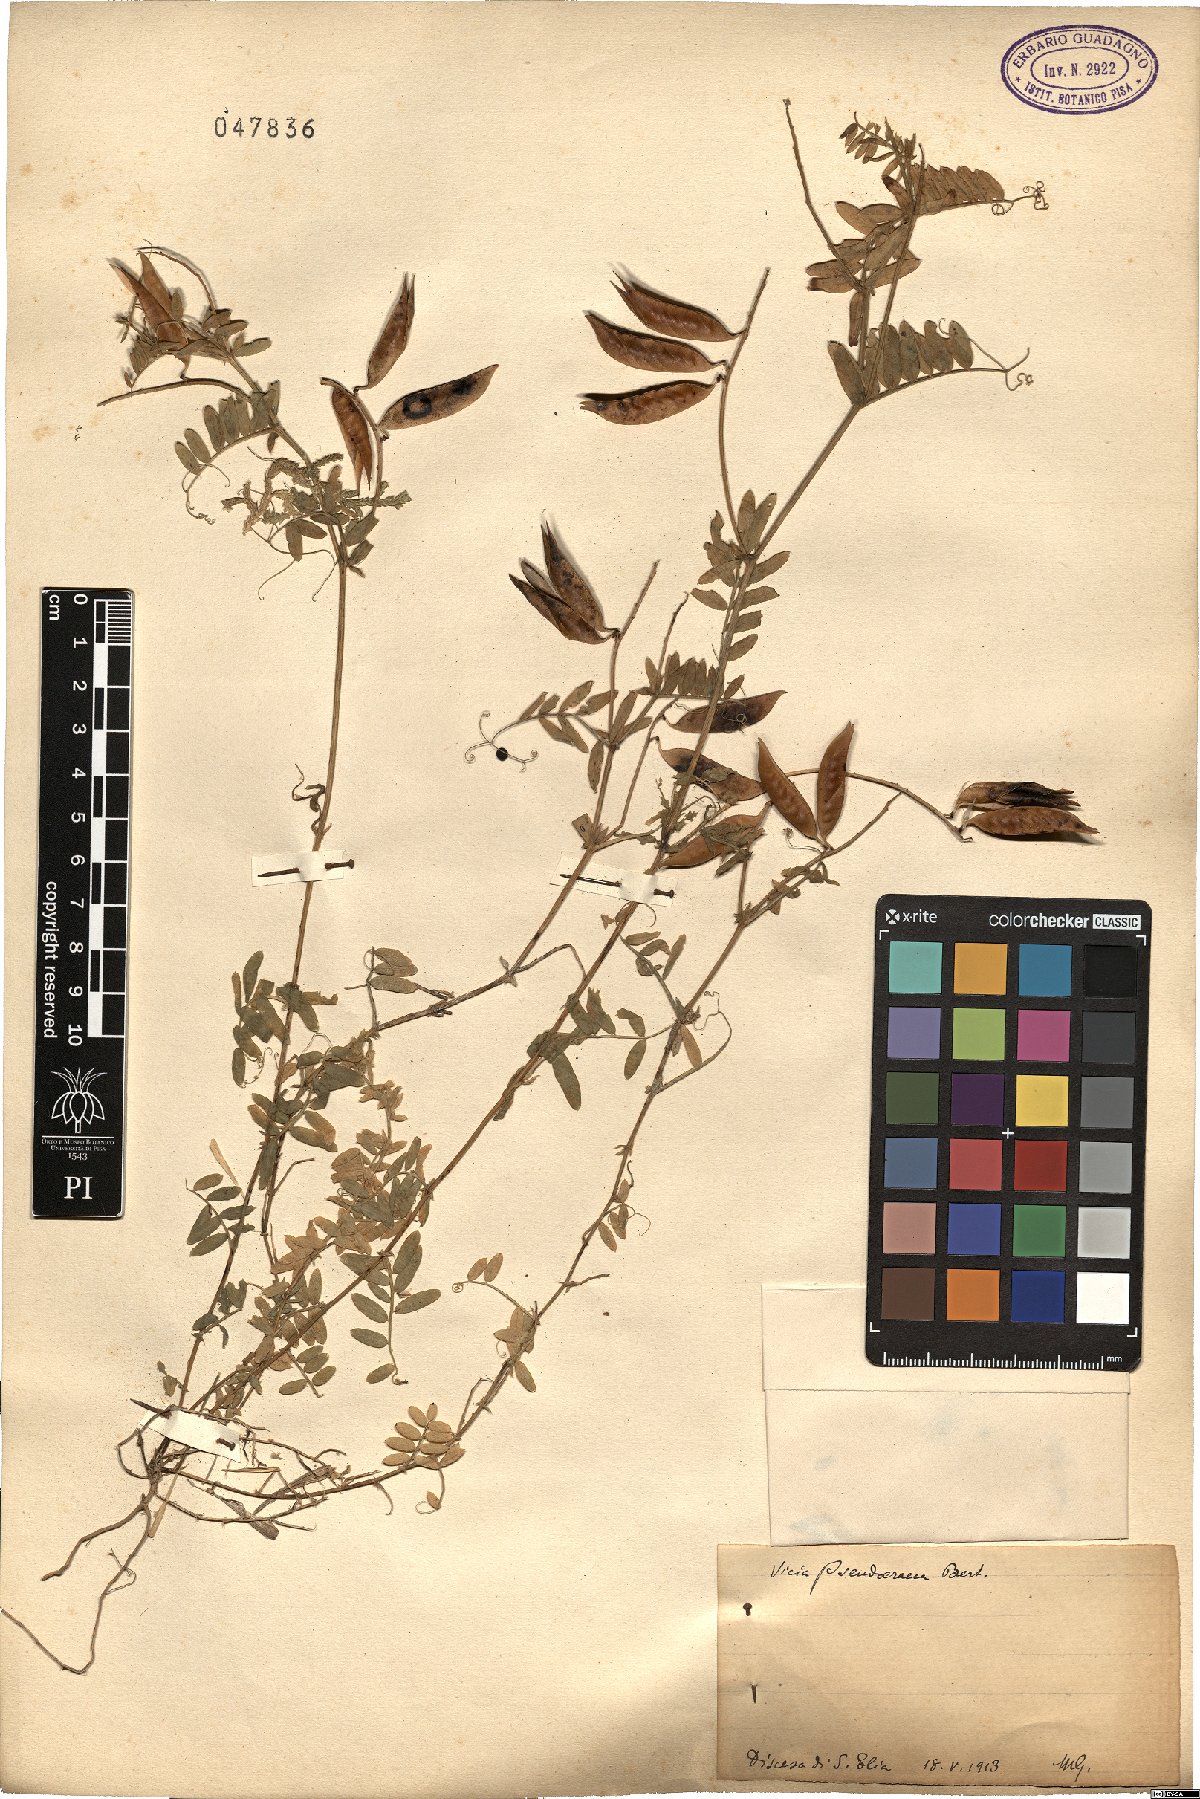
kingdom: Plantae
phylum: Tracheophyta
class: Magnoliopsida
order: Fabales
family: Fabaceae
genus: Vicia
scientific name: Vicia villosa
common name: Fodder vetch
